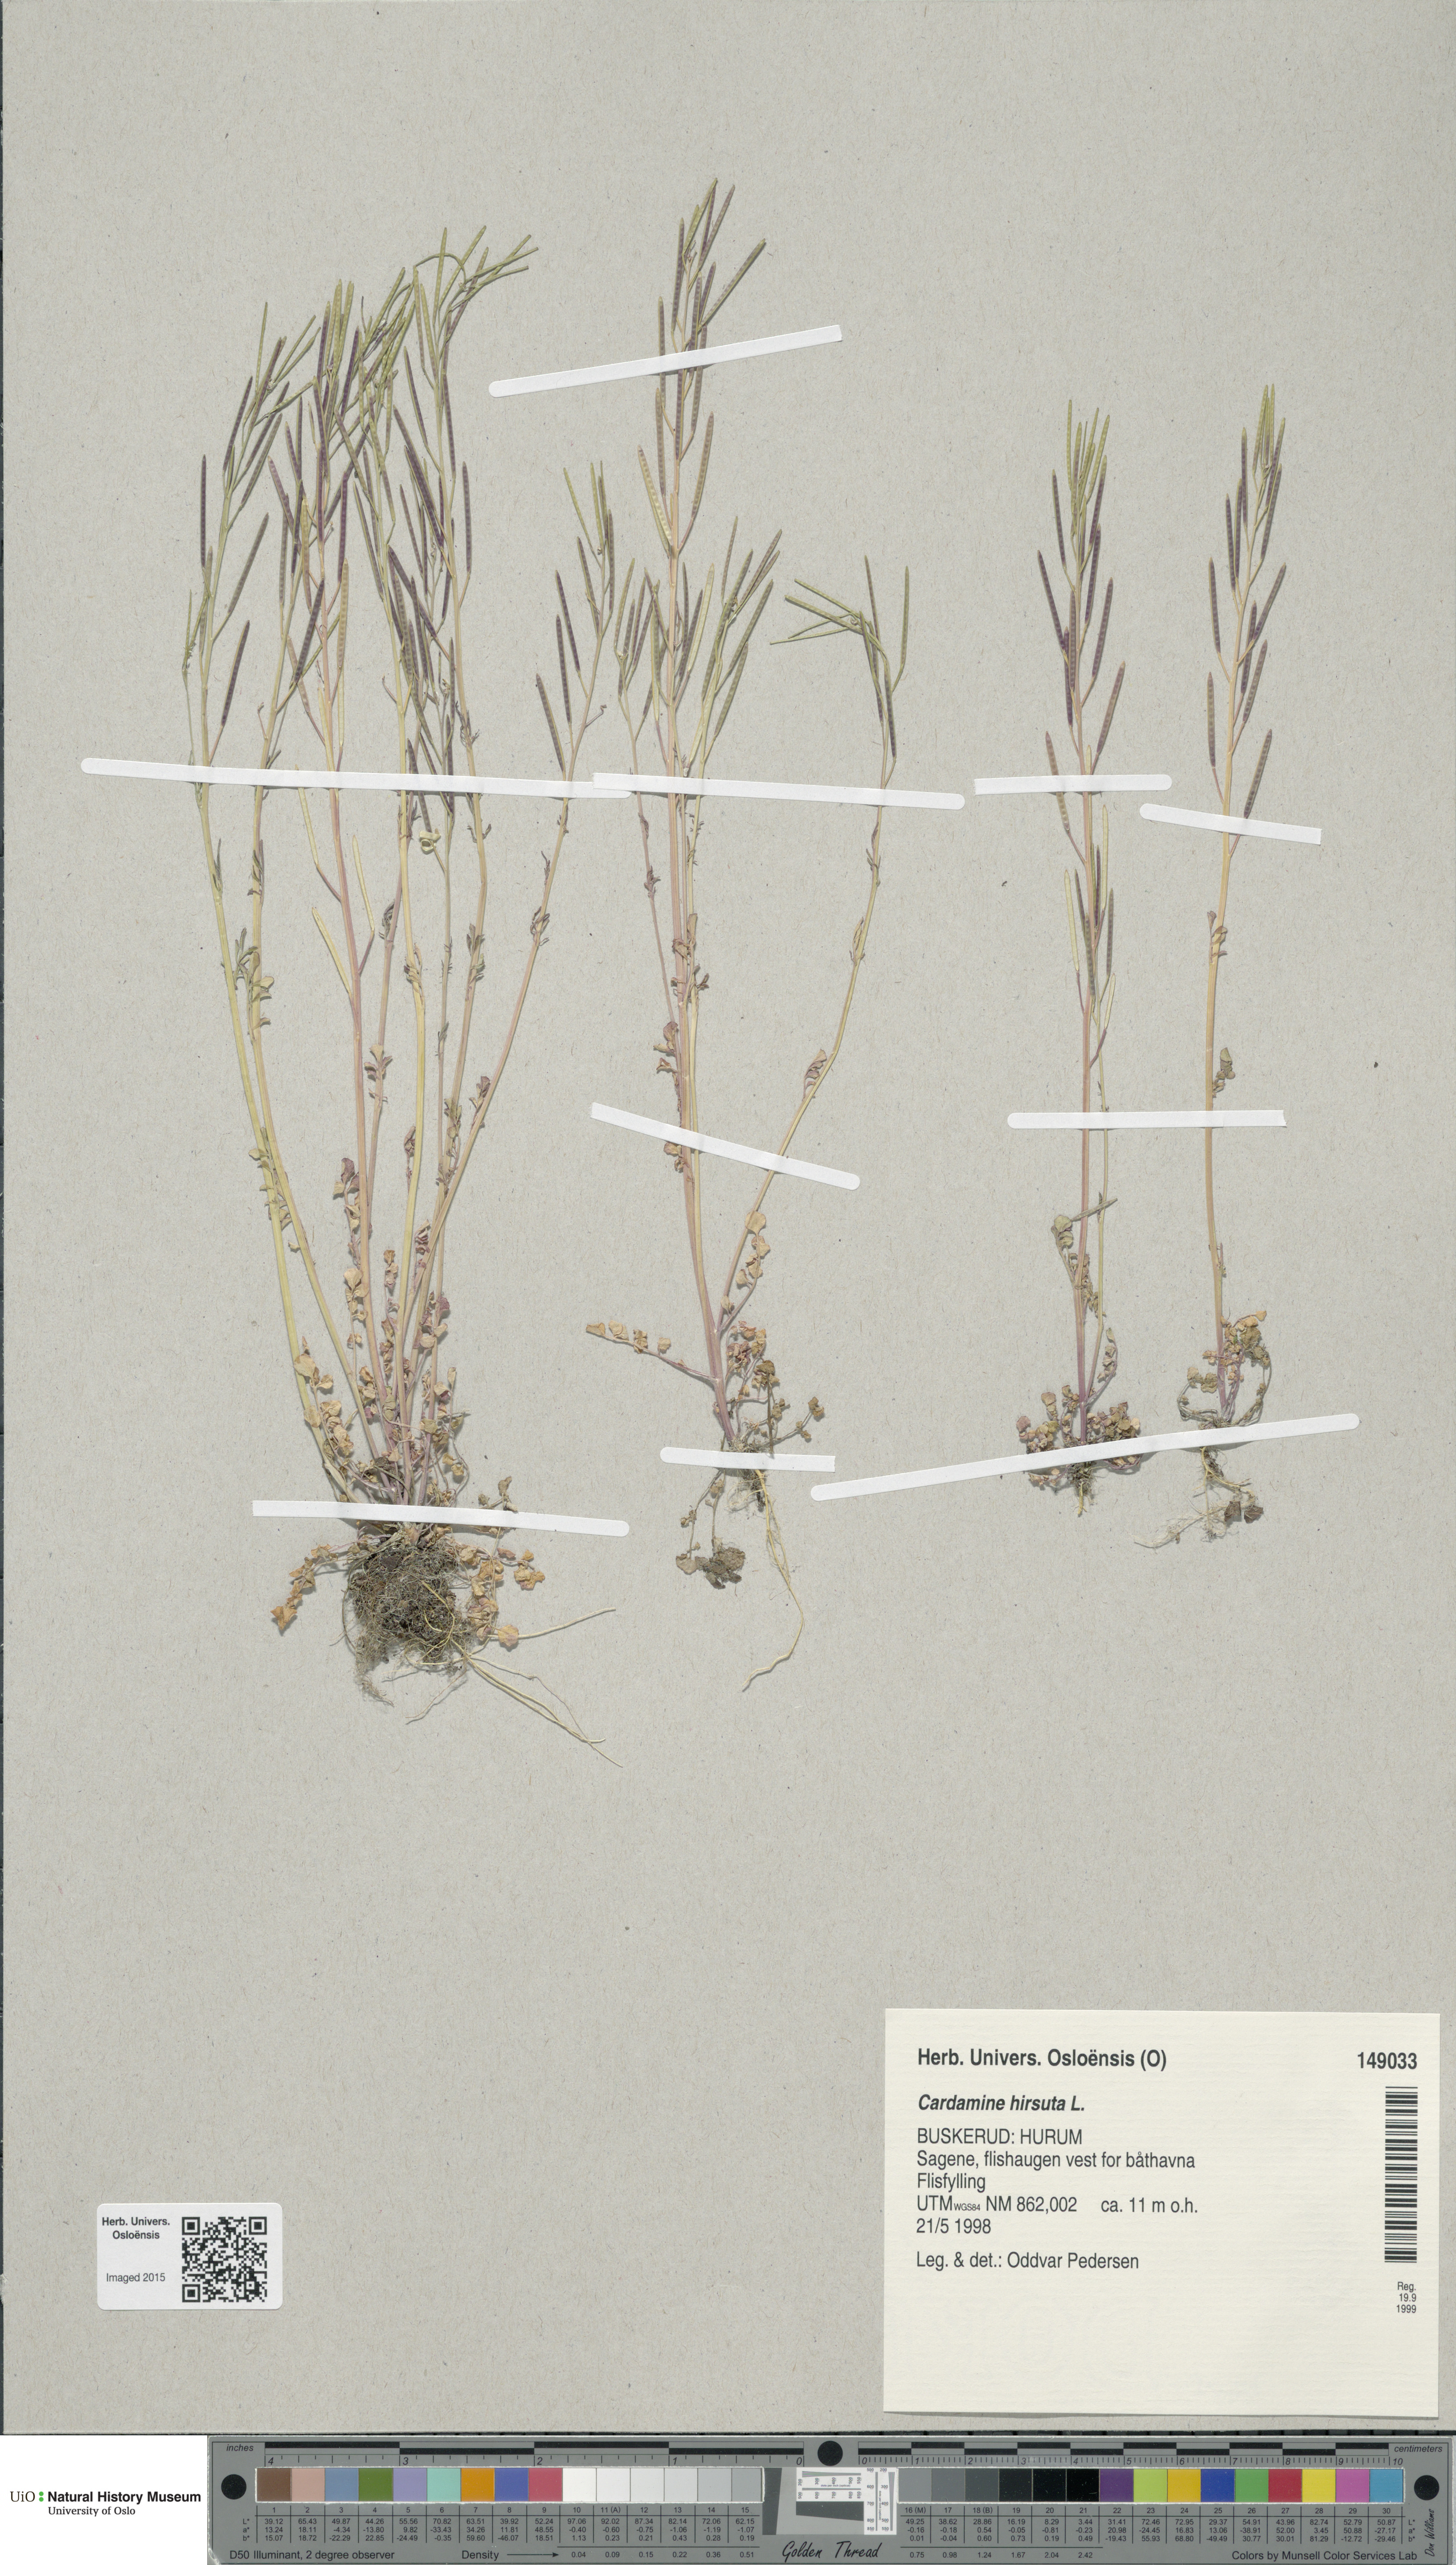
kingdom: Plantae
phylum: Tracheophyta
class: Magnoliopsida
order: Brassicales
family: Brassicaceae
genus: Cardamine
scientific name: Cardamine hirsuta
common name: Hairy bittercress
